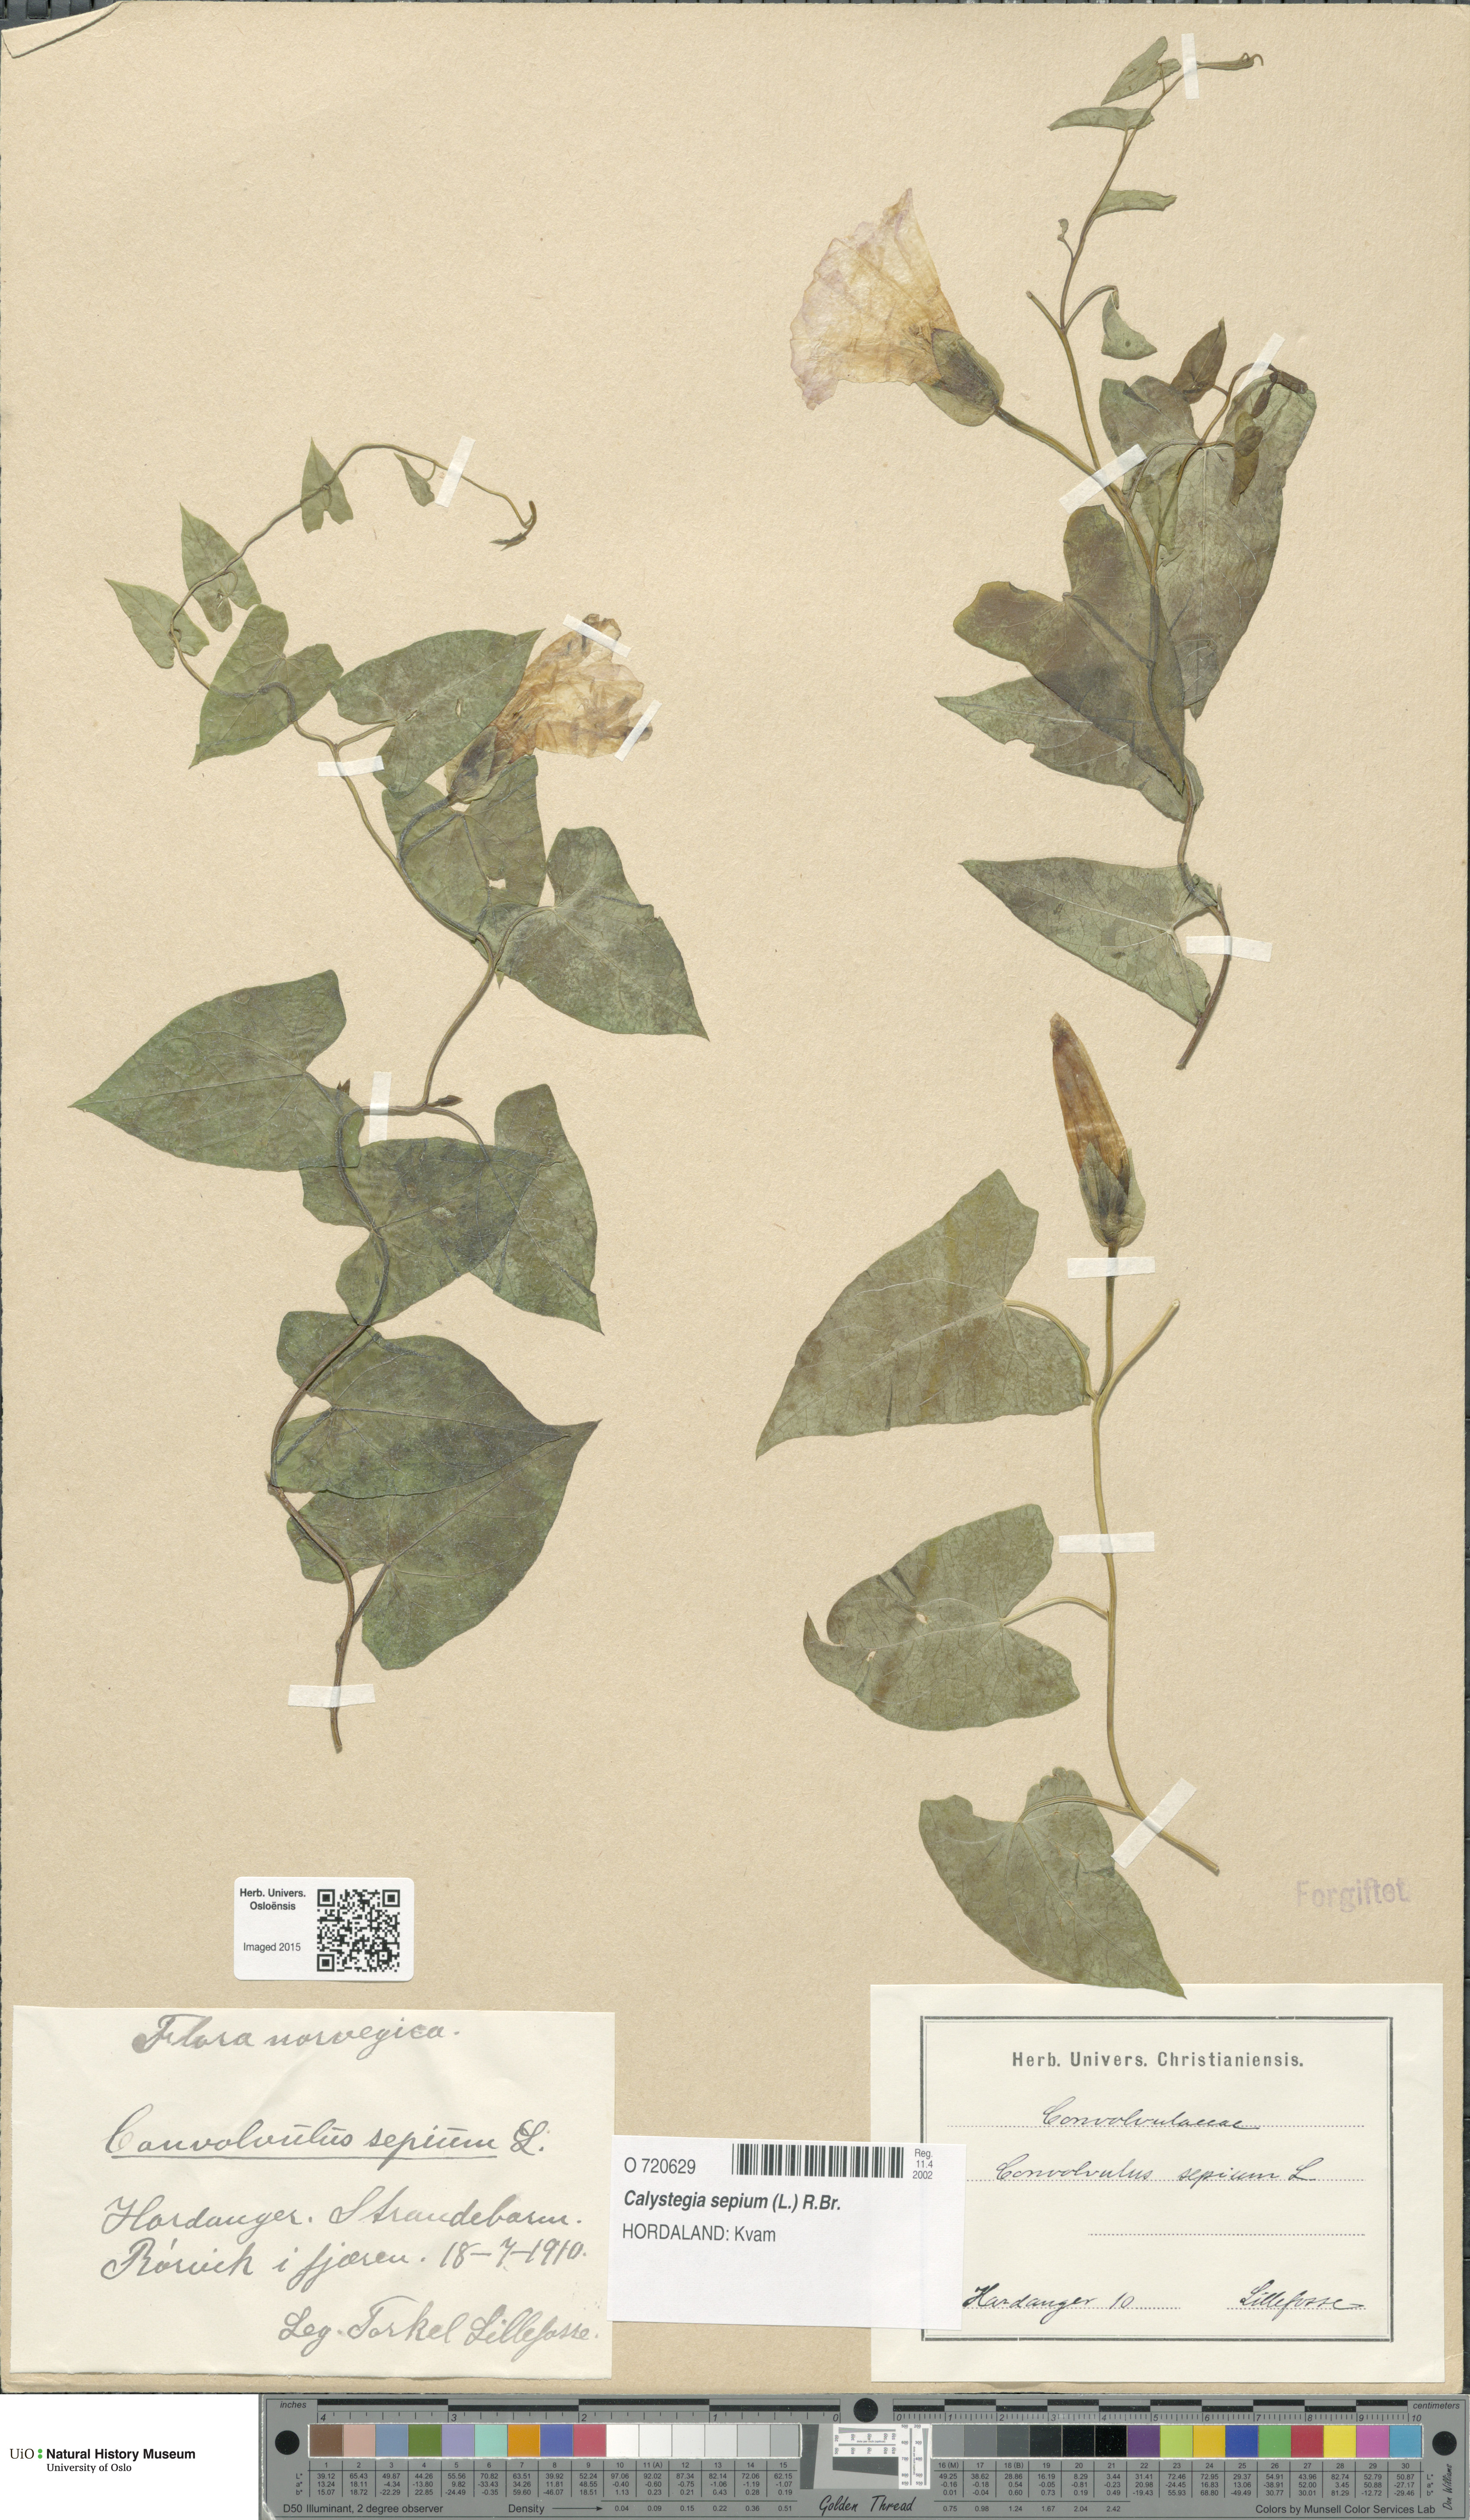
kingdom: Plantae
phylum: Tracheophyta
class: Magnoliopsida
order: Solanales
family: Convolvulaceae
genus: Calystegia
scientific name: Calystegia sepium
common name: Hedge bindweed
